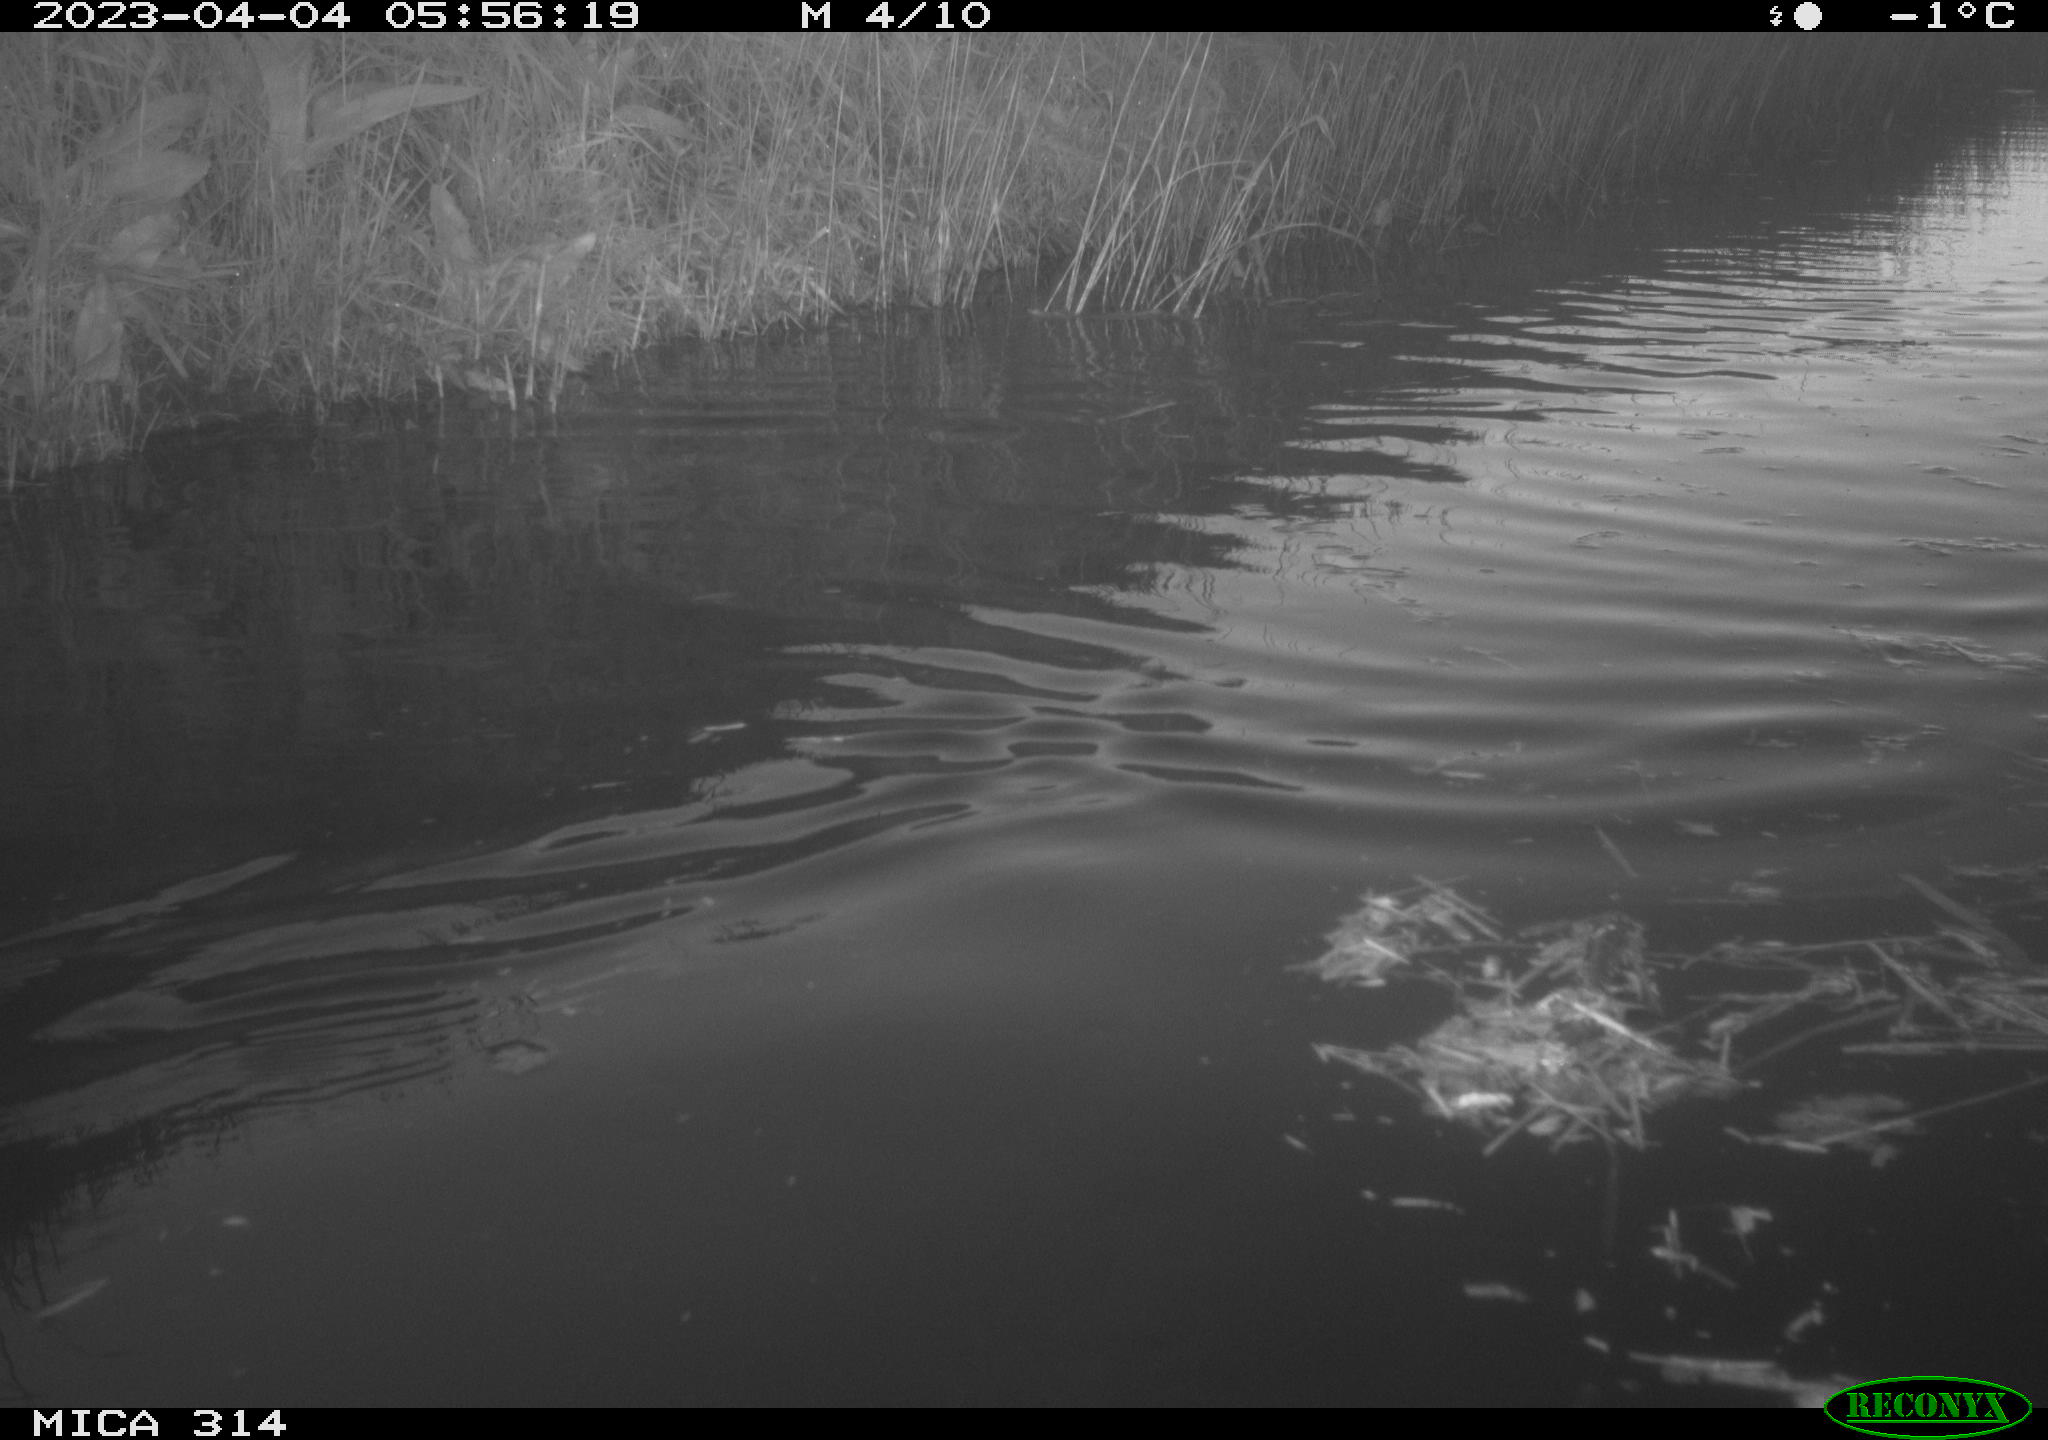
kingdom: Animalia
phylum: Chordata
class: Aves
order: Anseriformes
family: Anatidae
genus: Anas
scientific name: Anas
